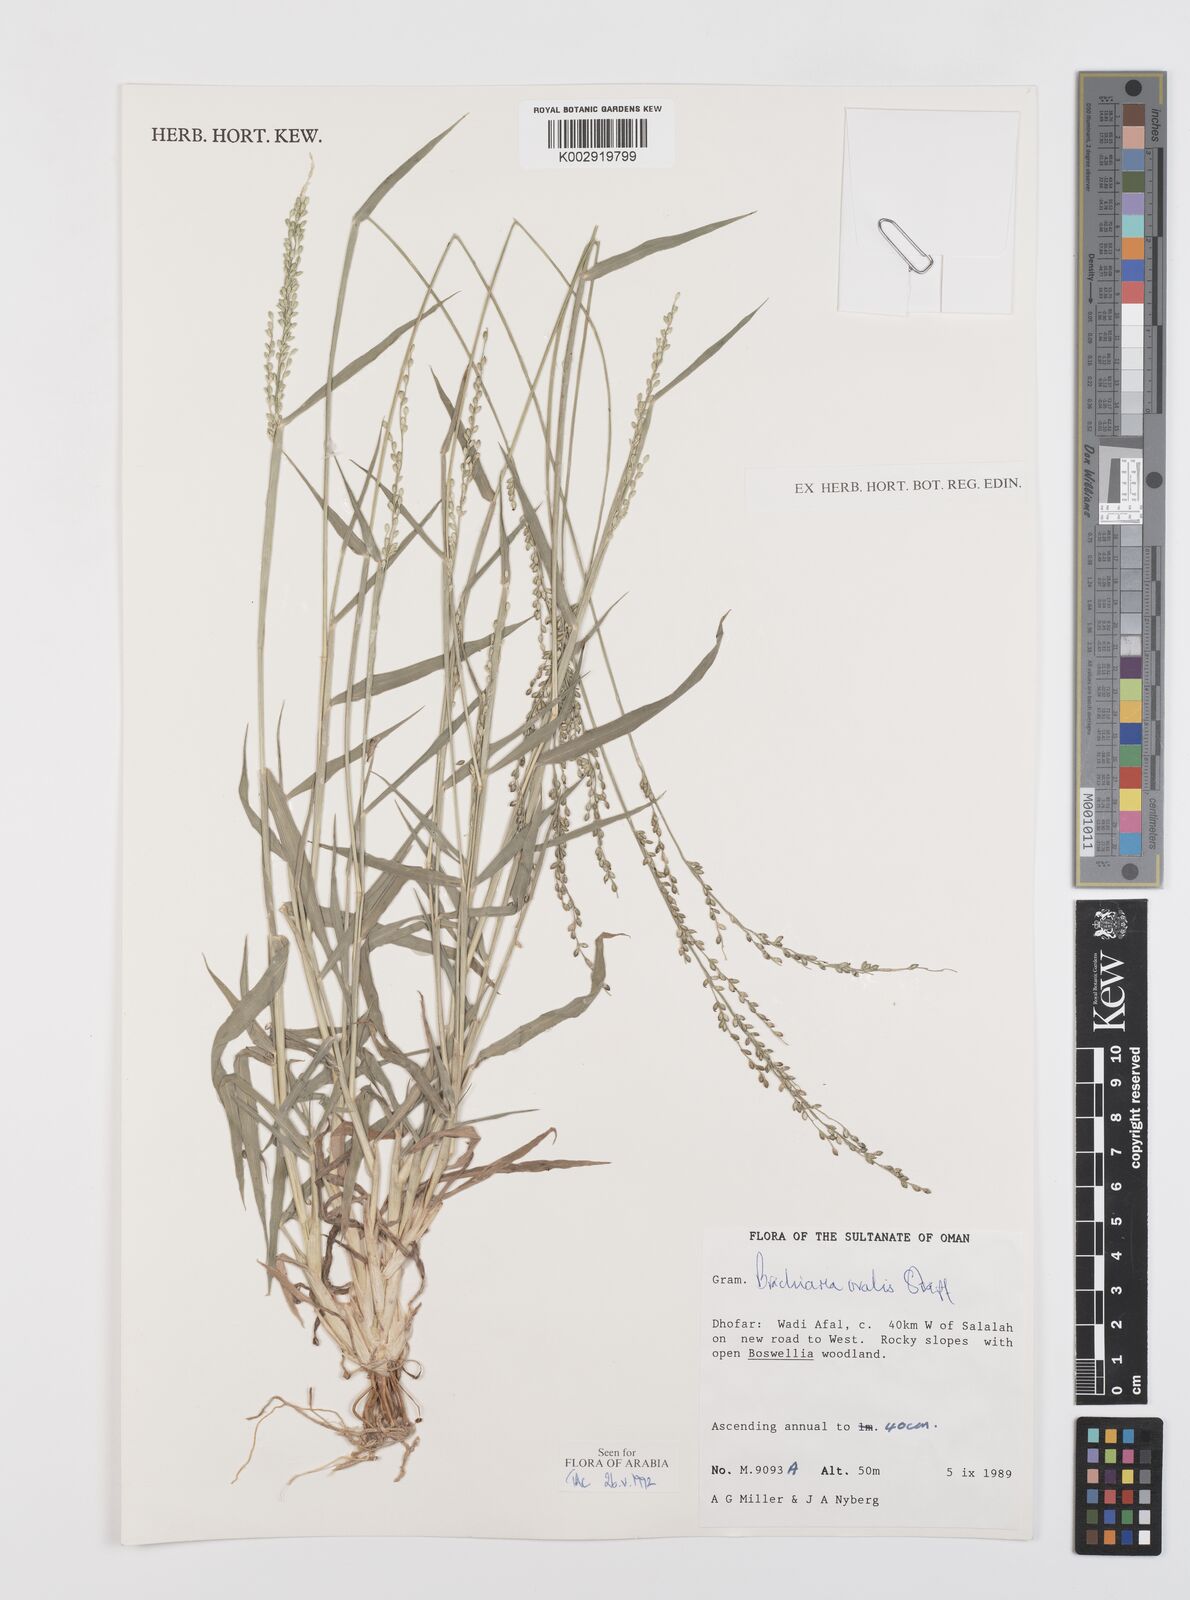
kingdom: Plantae
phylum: Tracheophyta
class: Liliopsida
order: Poales
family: Poaceae
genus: Urochloa
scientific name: Urochloa ovalis
